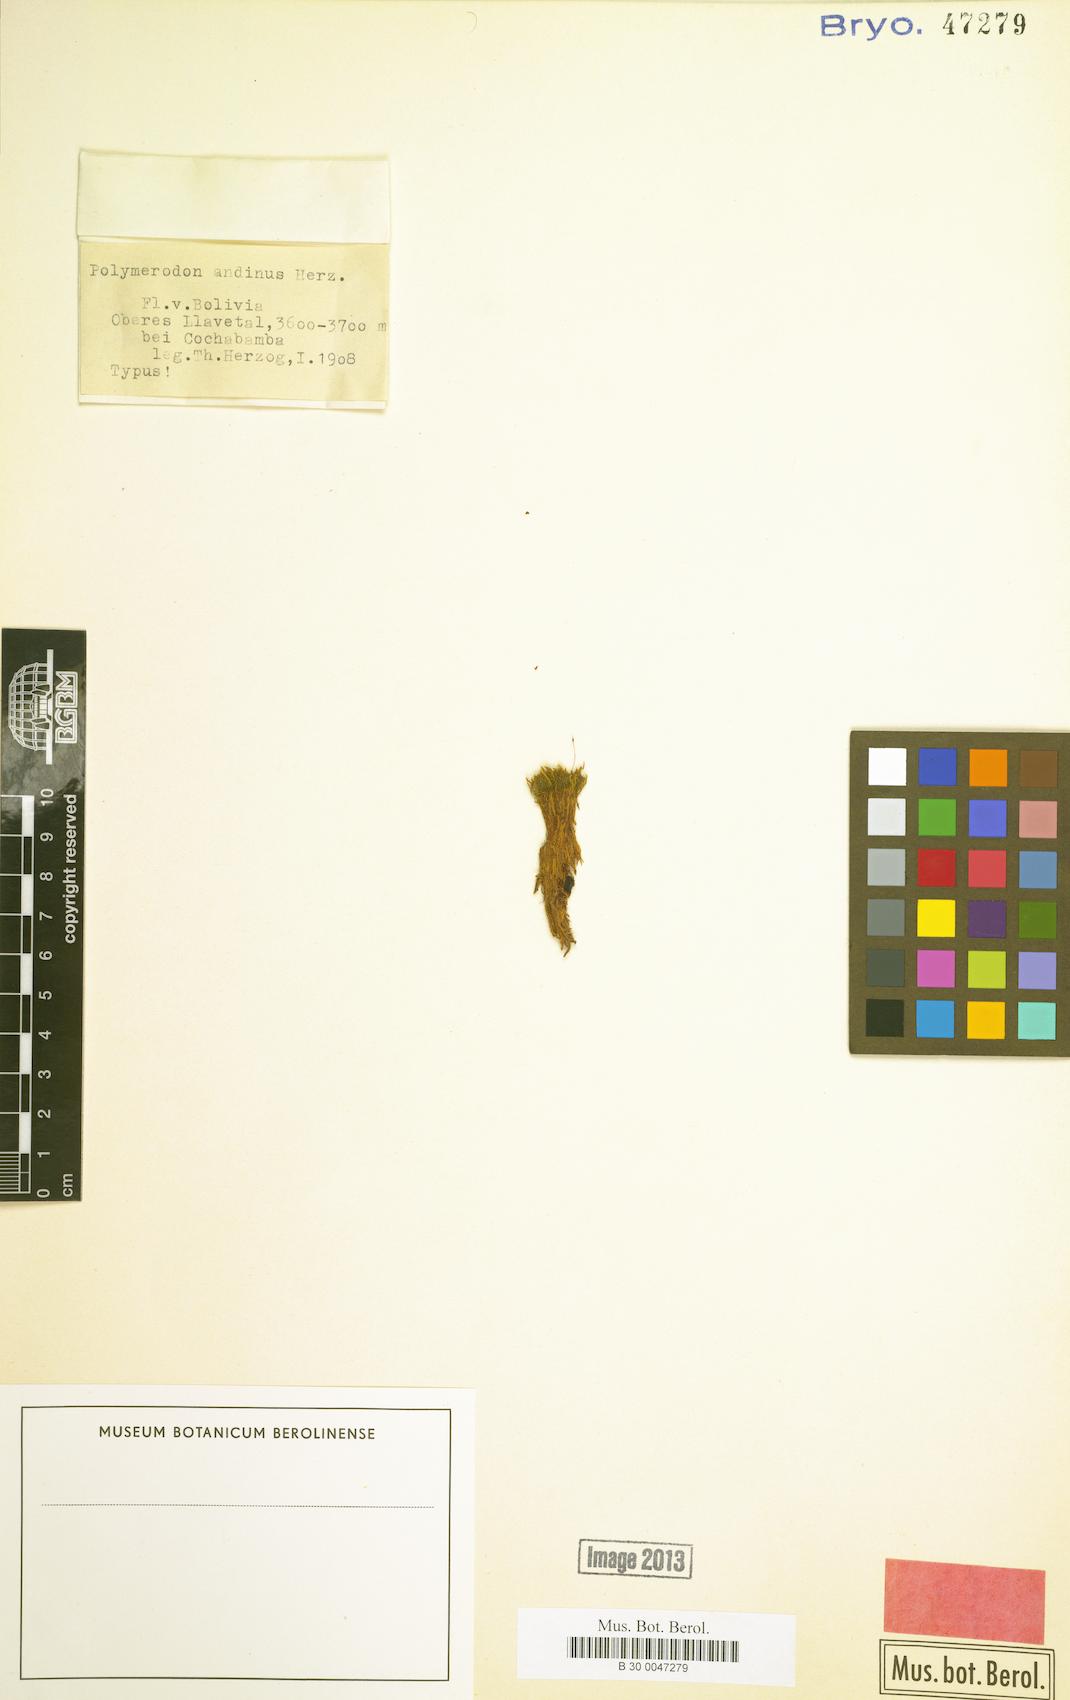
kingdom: Plantae
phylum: Bryophyta
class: Bryopsida
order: Dicranales
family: Aongstroemiaceae
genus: Polymerodon
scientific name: Polymerodon andinus
